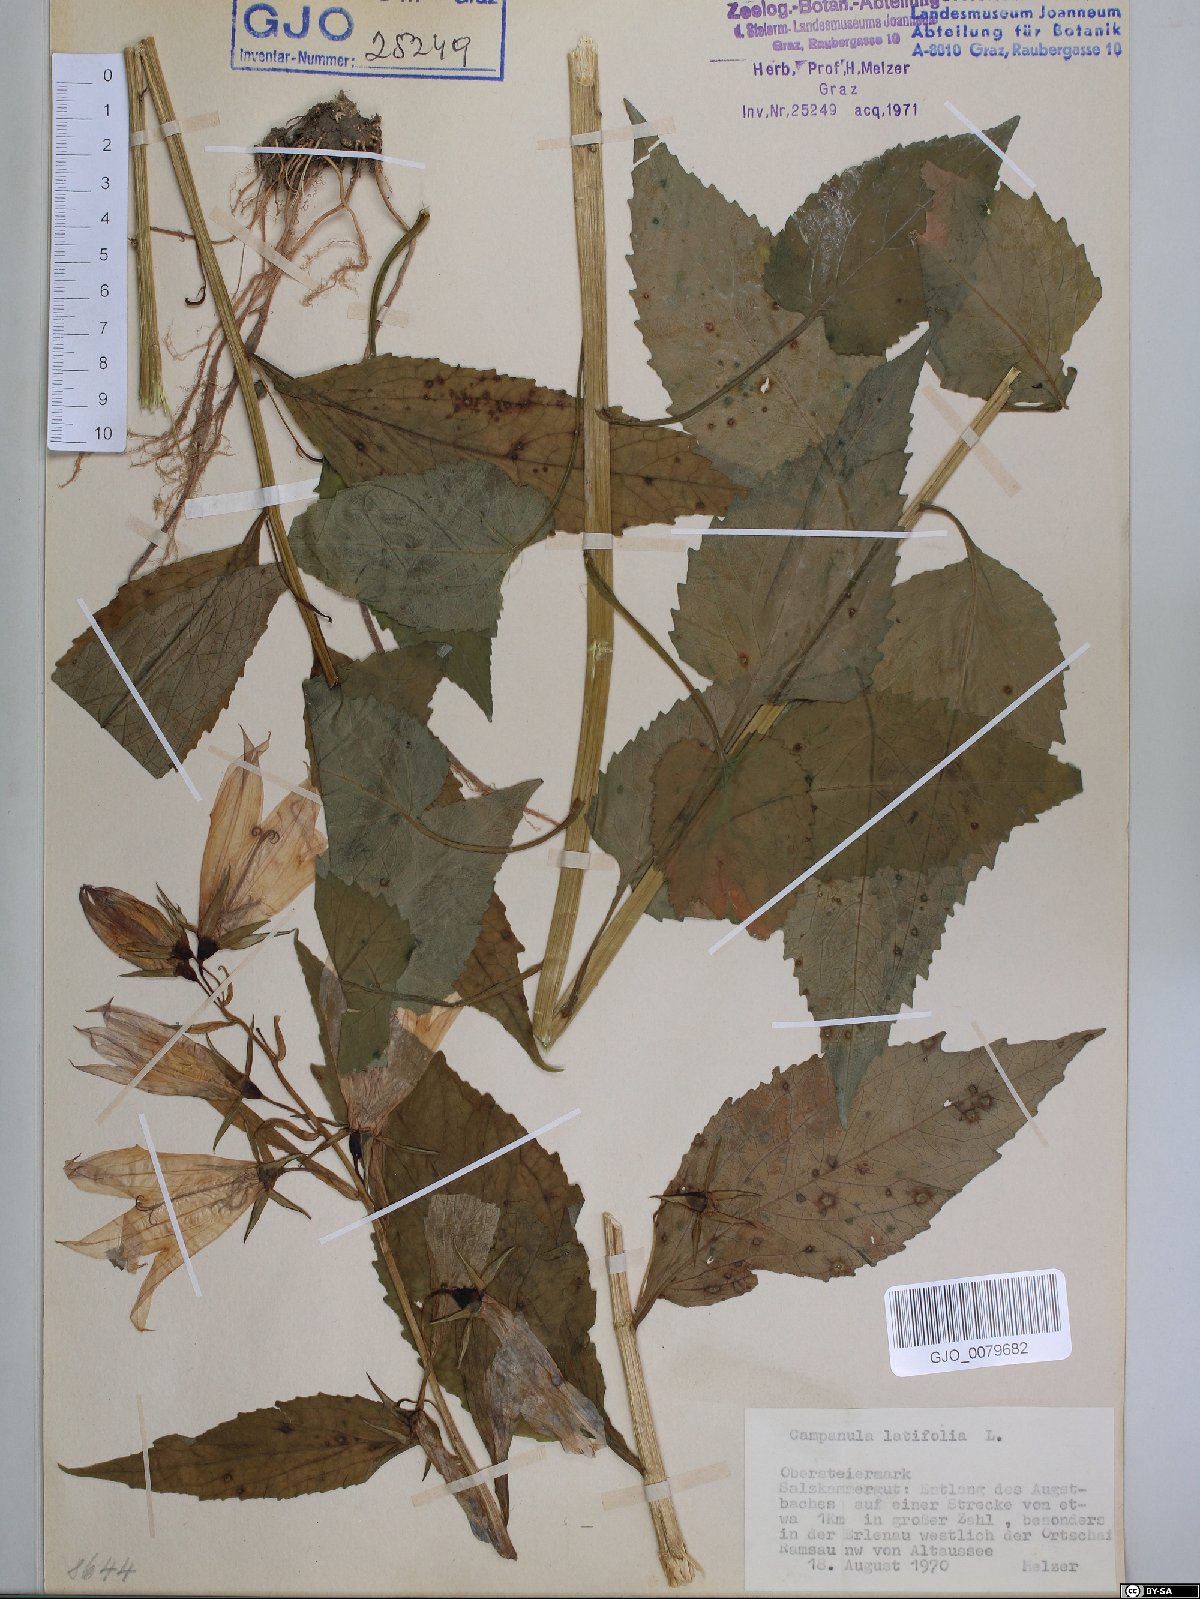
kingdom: Plantae
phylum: Tracheophyta
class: Magnoliopsida
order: Asterales
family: Campanulaceae
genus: Campanula
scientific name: Campanula latifolia
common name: Giant bellflower
